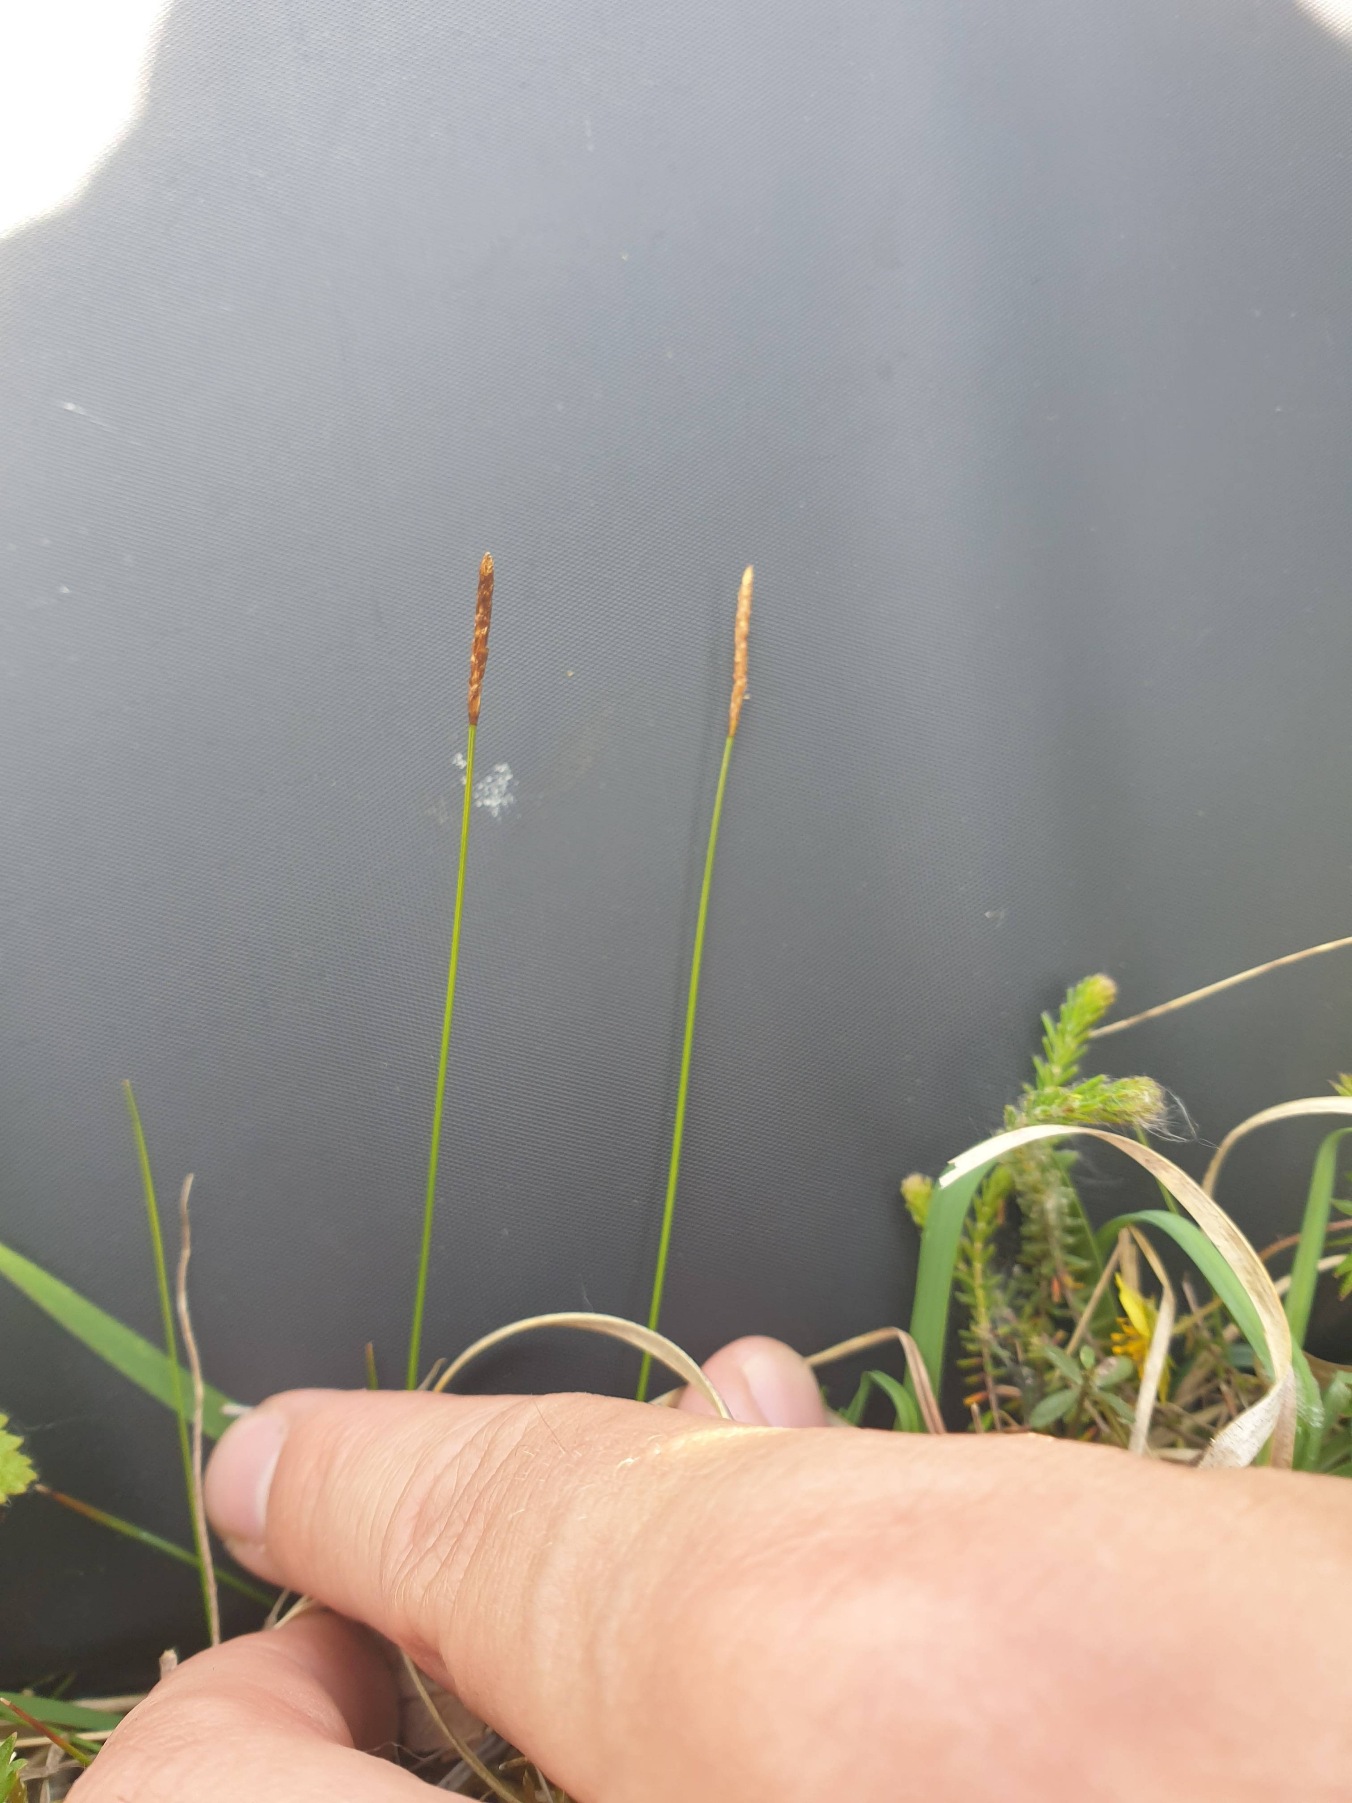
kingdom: Plantae
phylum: Tracheophyta
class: Liliopsida
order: Poales
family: Cyperaceae
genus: Carex
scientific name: Carex dioica
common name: Tvebo star
